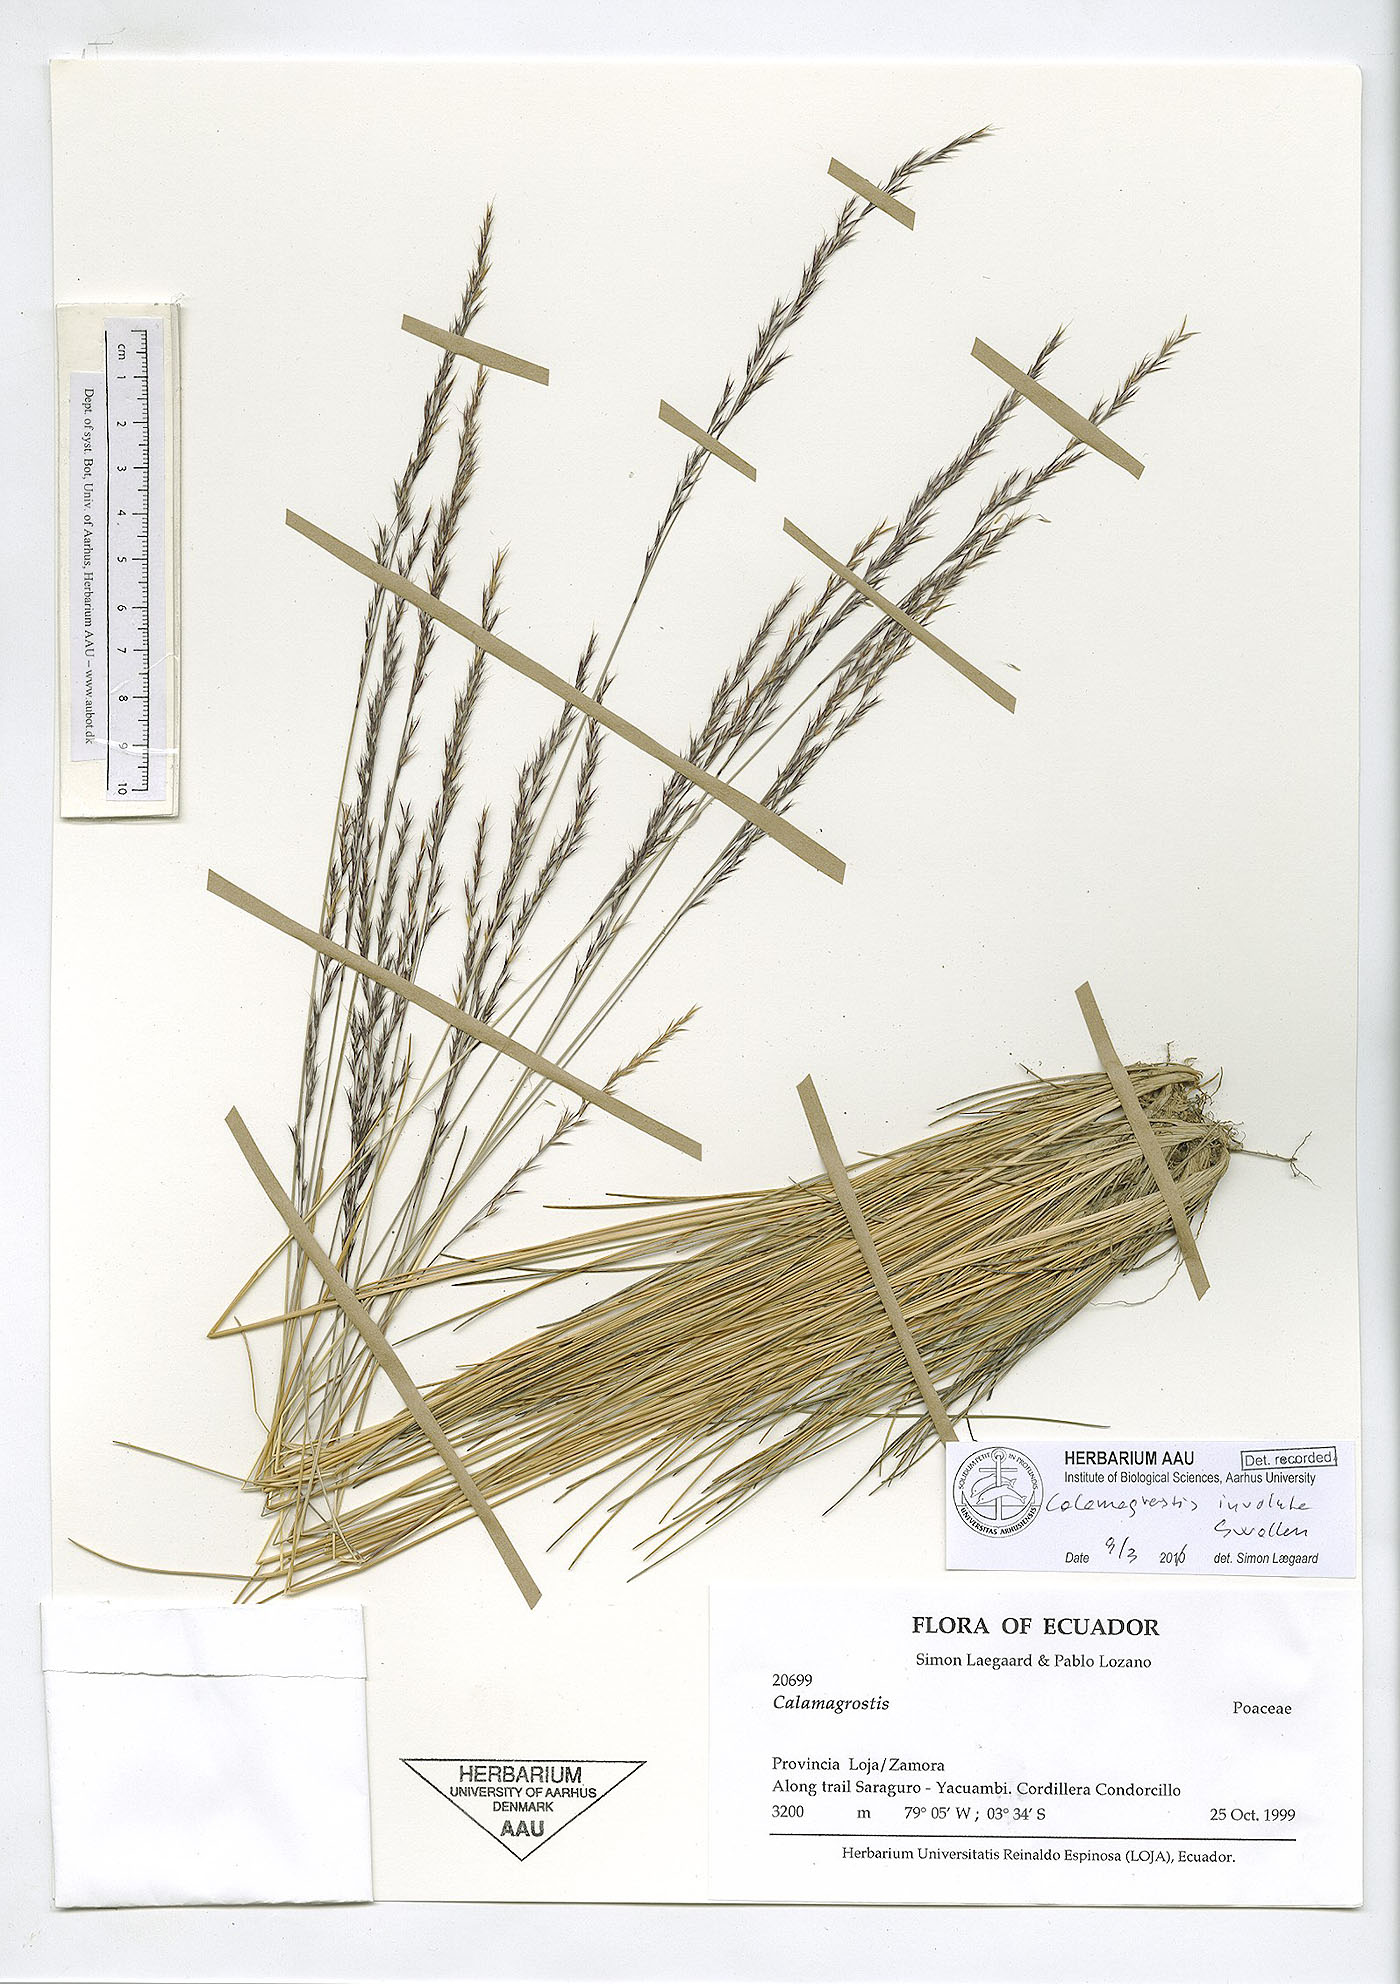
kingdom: Plantae
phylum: Tracheophyta
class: Liliopsida
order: Poales
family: Poaceae
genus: Cinnagrostis
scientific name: Cinnagrostis involuta
